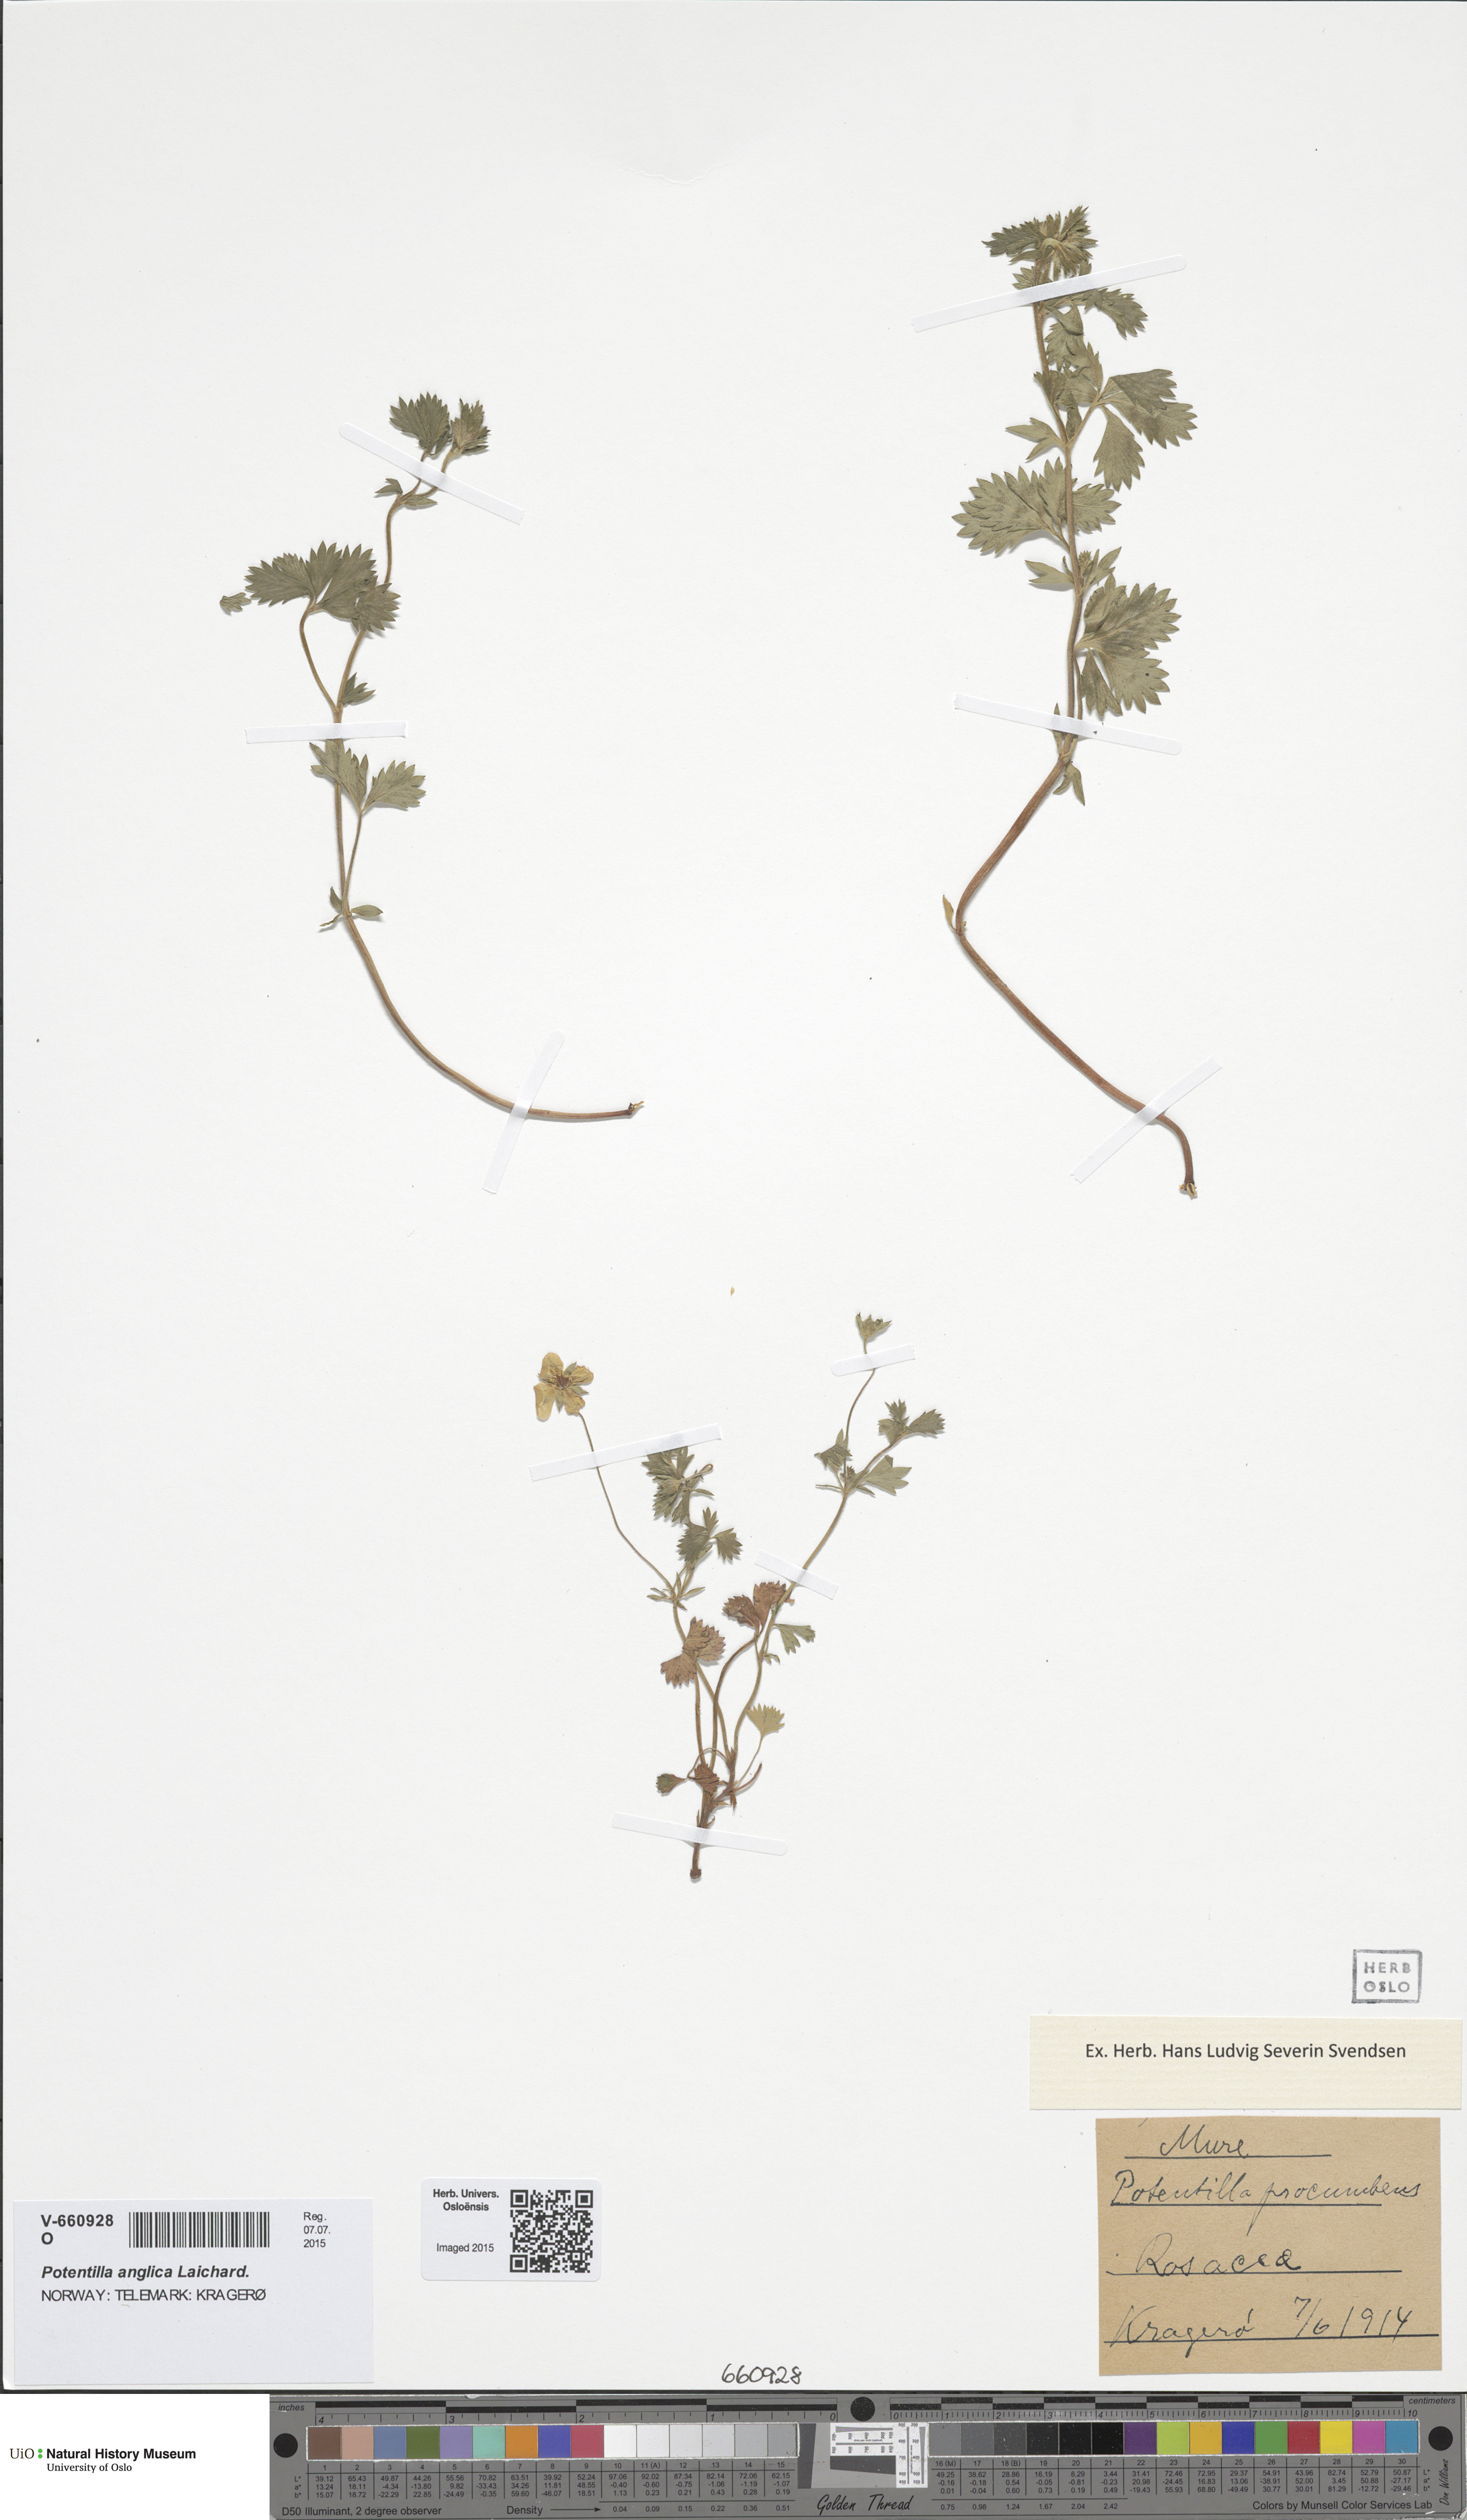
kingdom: Plantae
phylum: Tracheophyta
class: Magnoliopsida
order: Rosales
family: Rosaceae
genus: Potentilla
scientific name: Potentilla anglica
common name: Trailing tormentil
